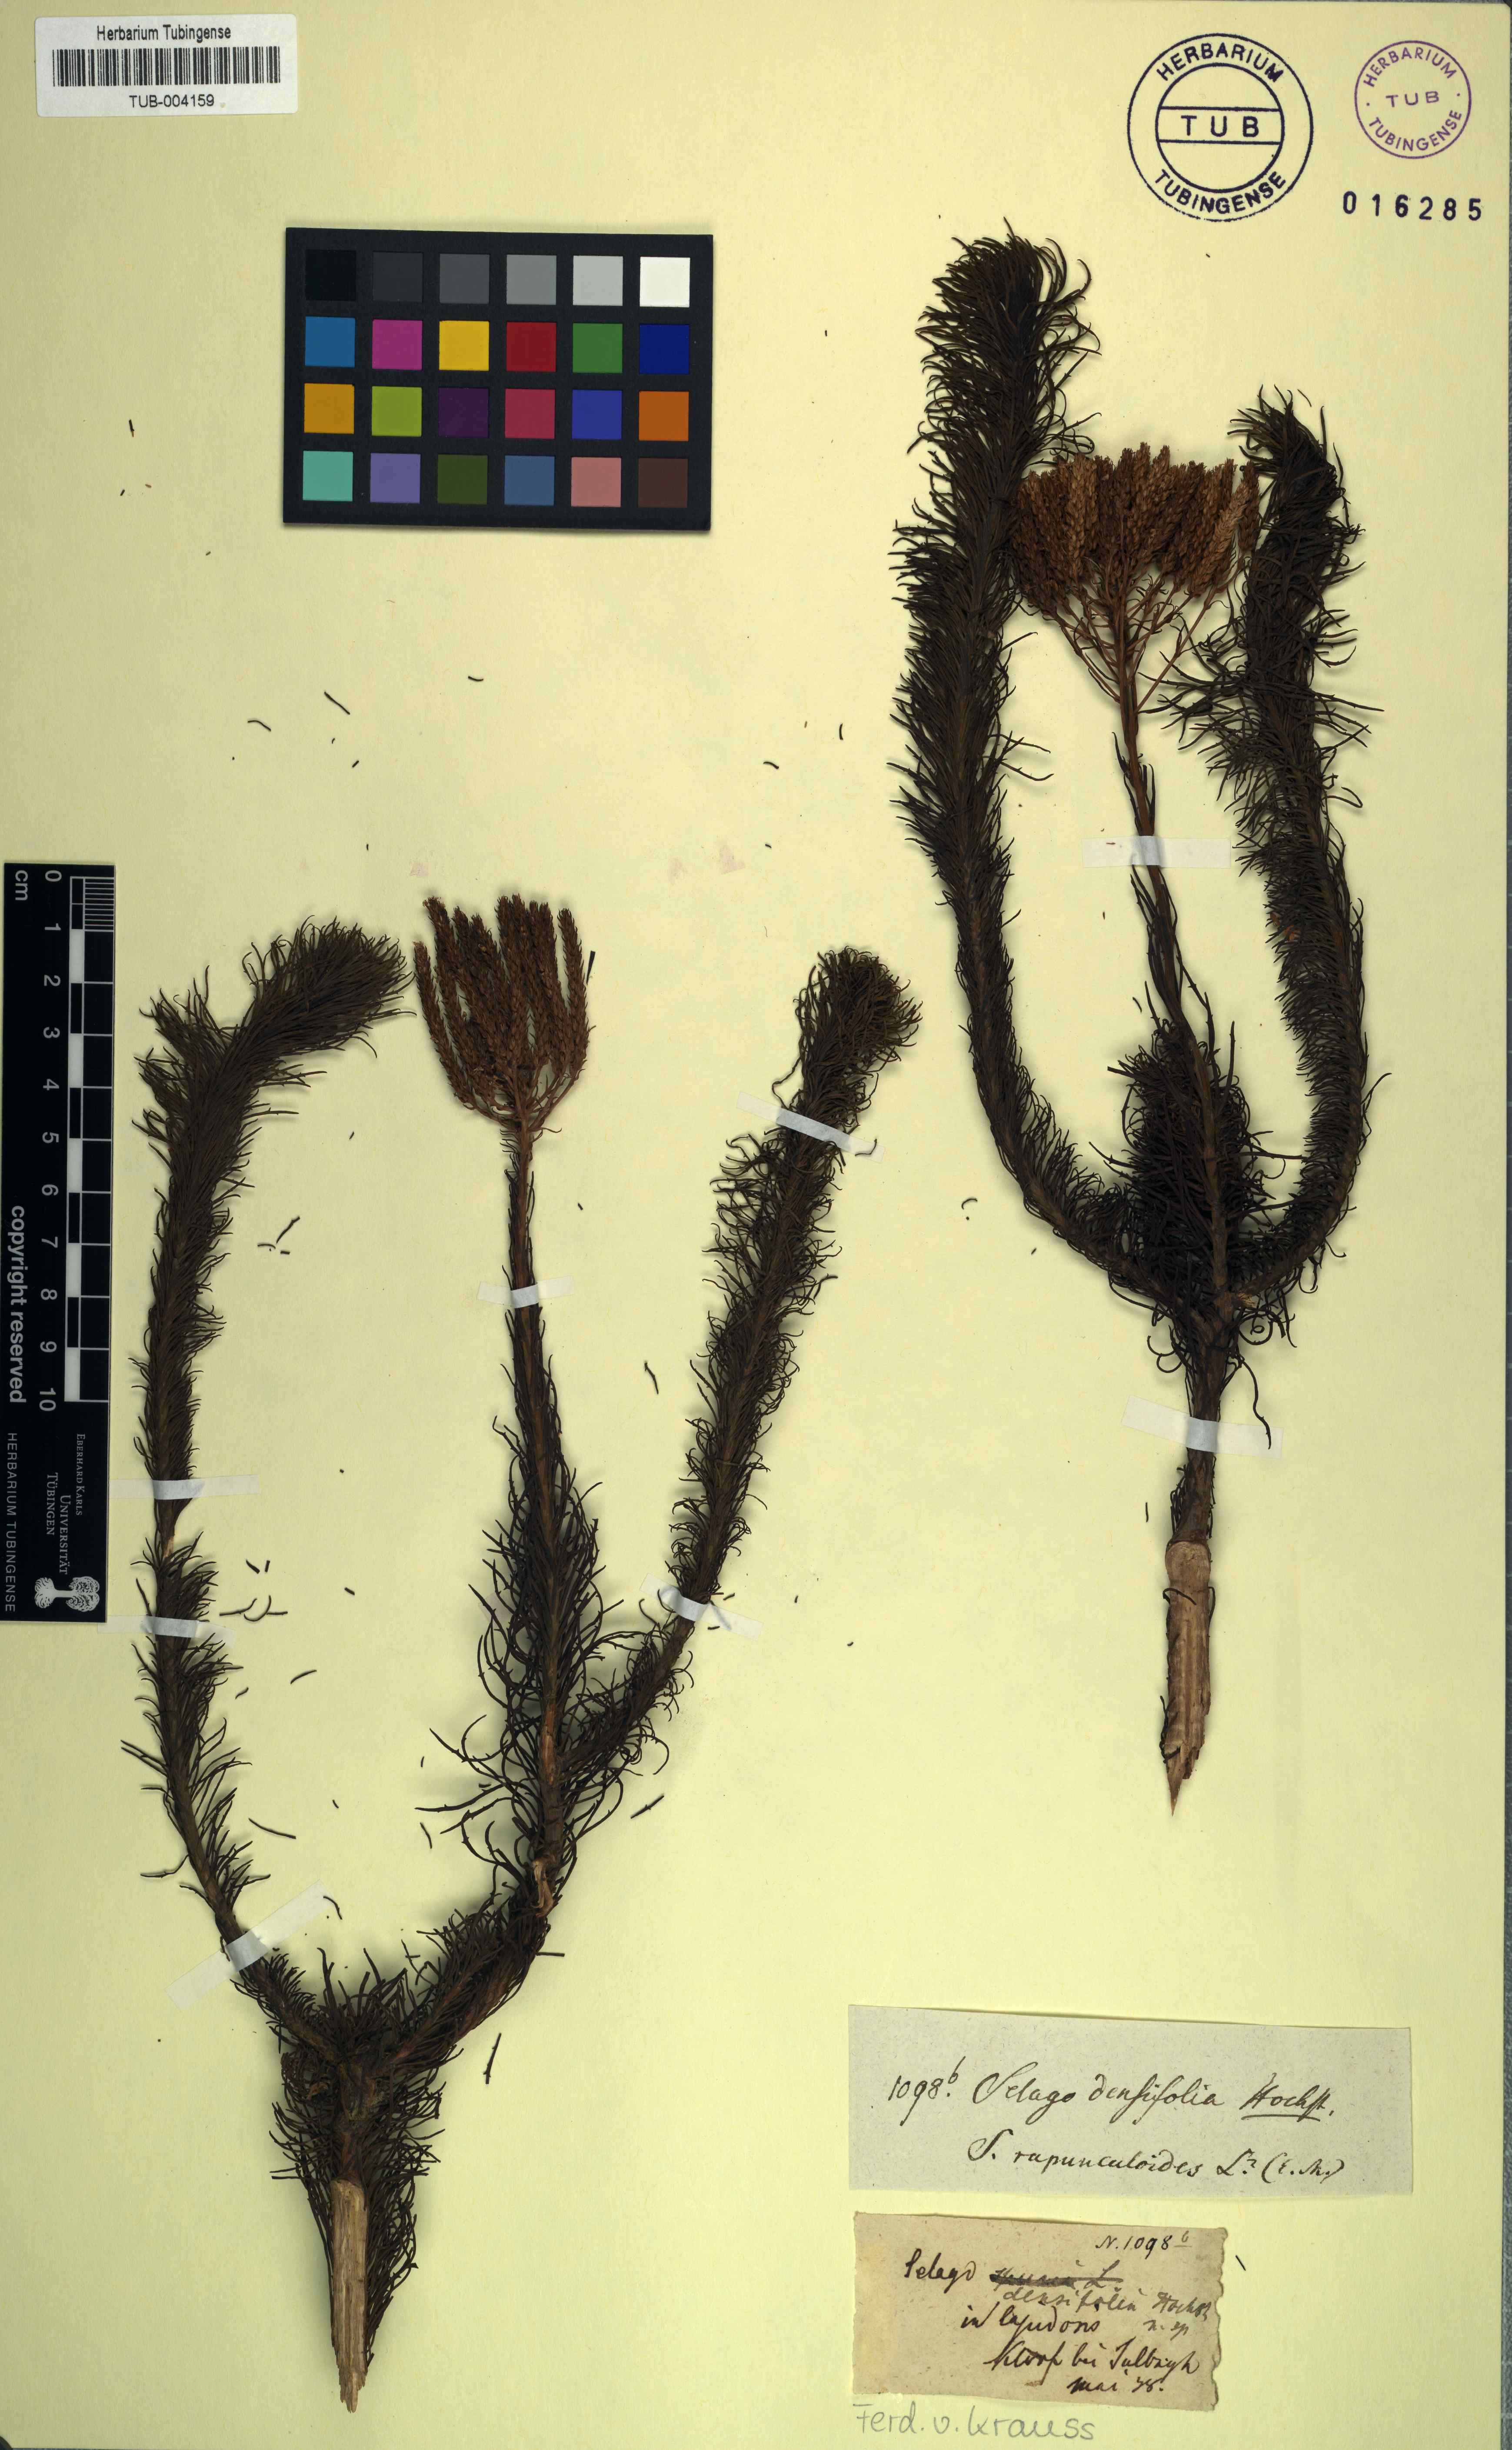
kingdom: Plantae
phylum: Tracheophyta
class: Magnoliopsida
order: Lamiales
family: Scrophulariaceae
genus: Pseudoselago
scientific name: Pseudoselago spuria
